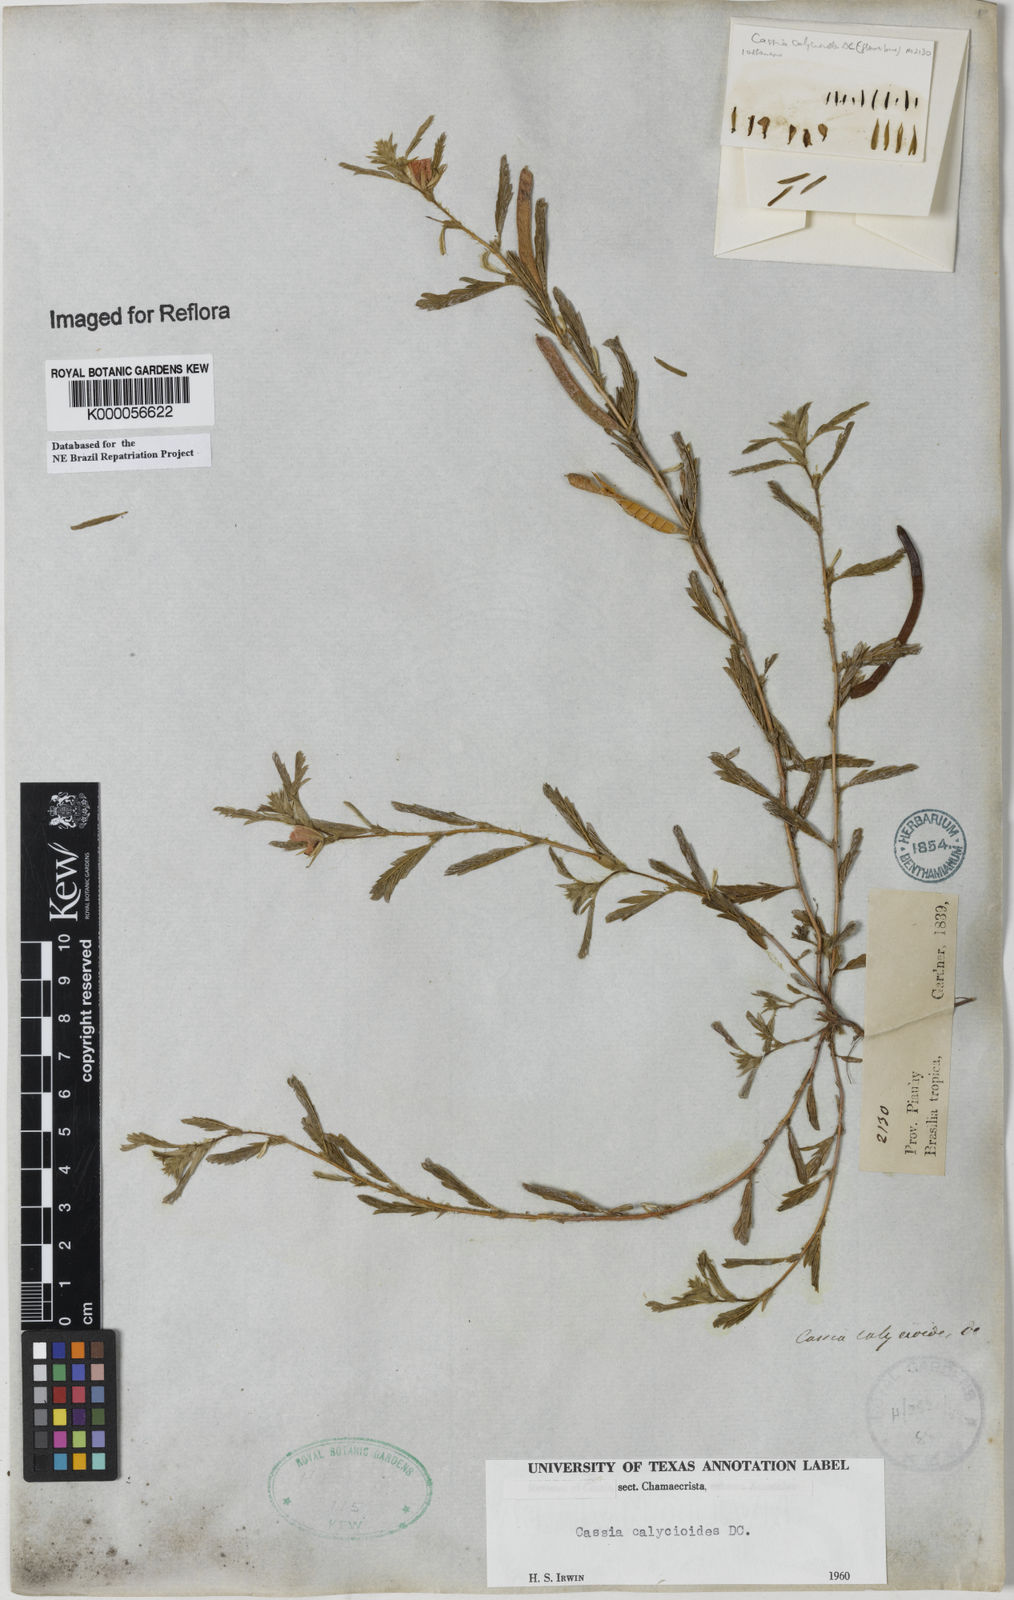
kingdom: Plantae
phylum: Tracheophyta
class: Magnoliopsida
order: Fabales
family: Fabaceae
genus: Chamaecrista
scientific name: Chamaecrista calycioides
